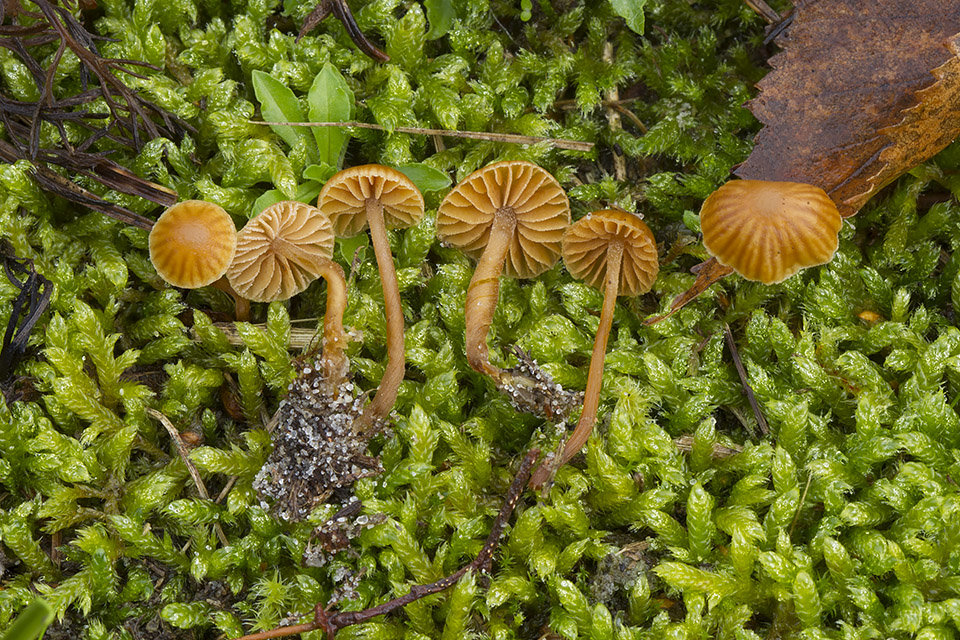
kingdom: Fungi
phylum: Basidiomycota
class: Agaricomycetes
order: Agaricales
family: Hymenogastraceae
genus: Galerina
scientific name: Galerina vittiformis
